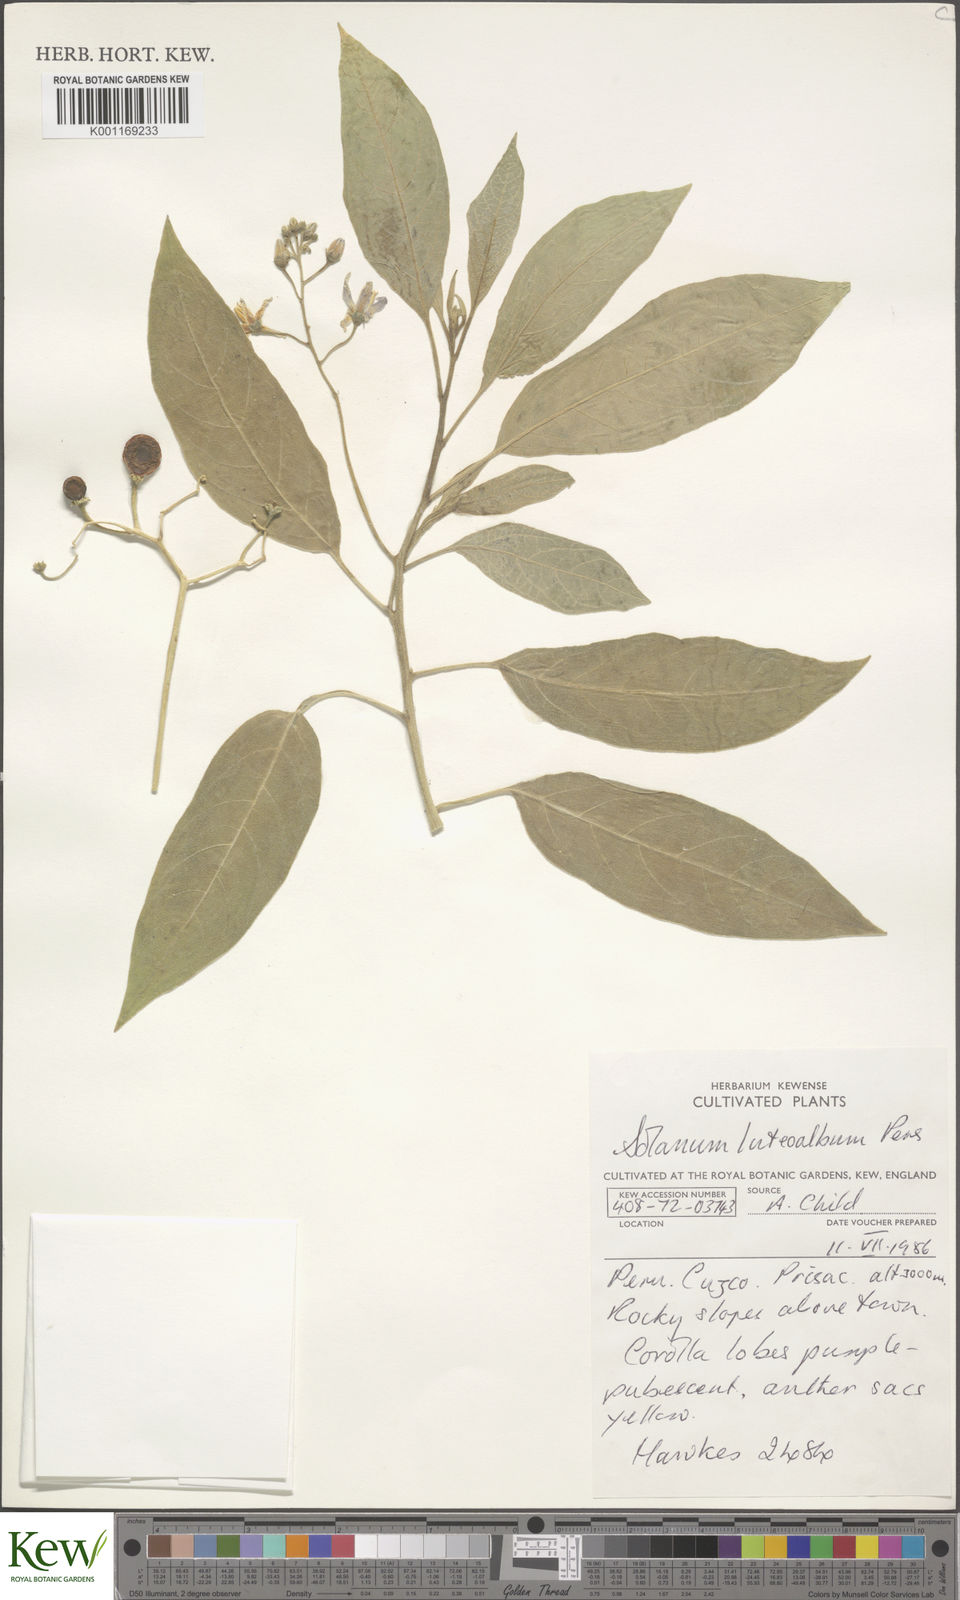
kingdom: Plantae
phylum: Tracheophyta
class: Magnoliopsida
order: Solanales
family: Solanaceae
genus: Solanum
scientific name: Solanum luteoalbum
